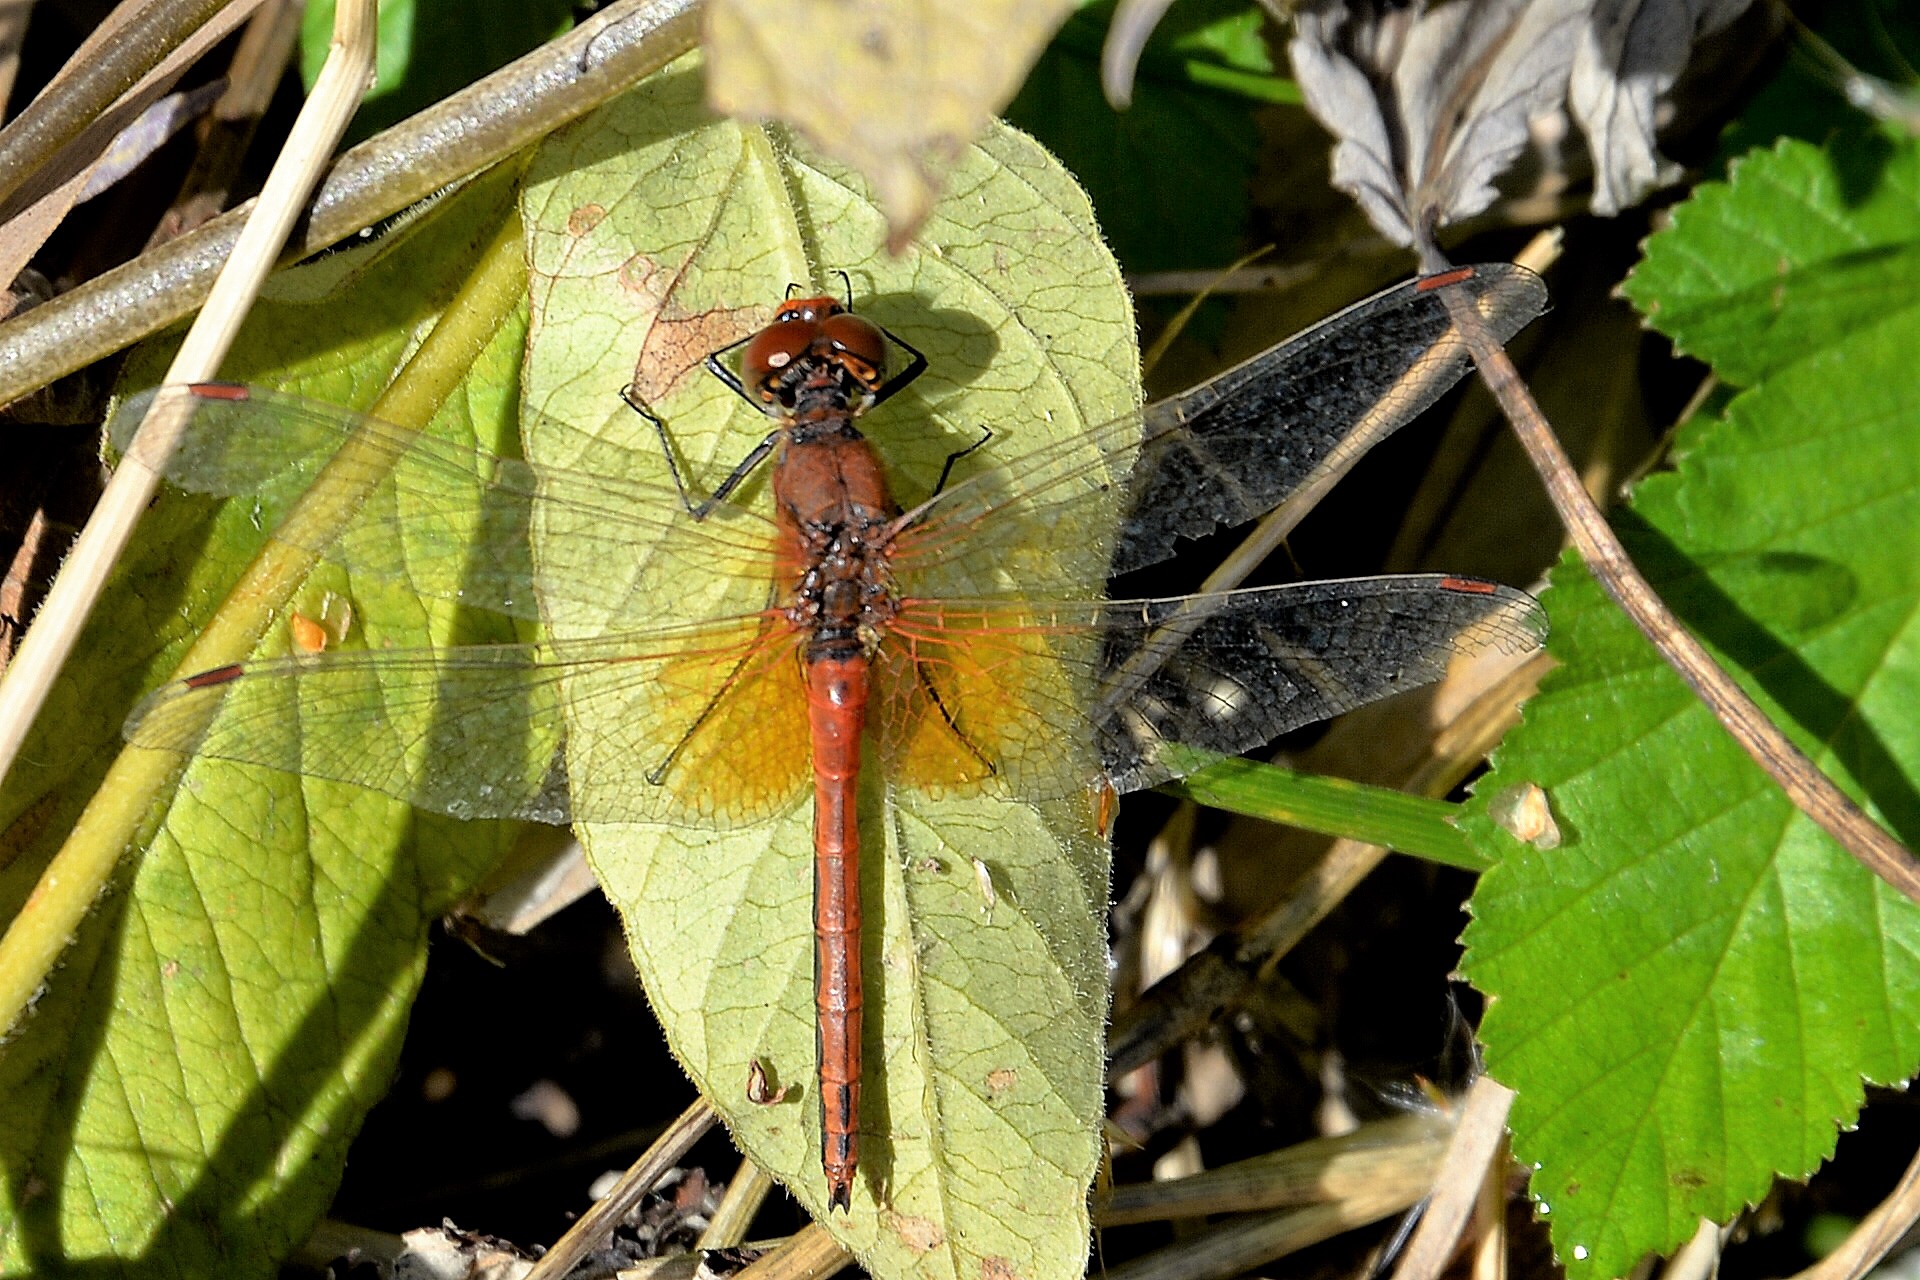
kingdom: Animalia
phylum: Arthropoda
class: Insecta
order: Odonata
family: Libellulidae
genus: Sympetrum
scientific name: Sympetrum flaveolum
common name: Yellow-winged darter
